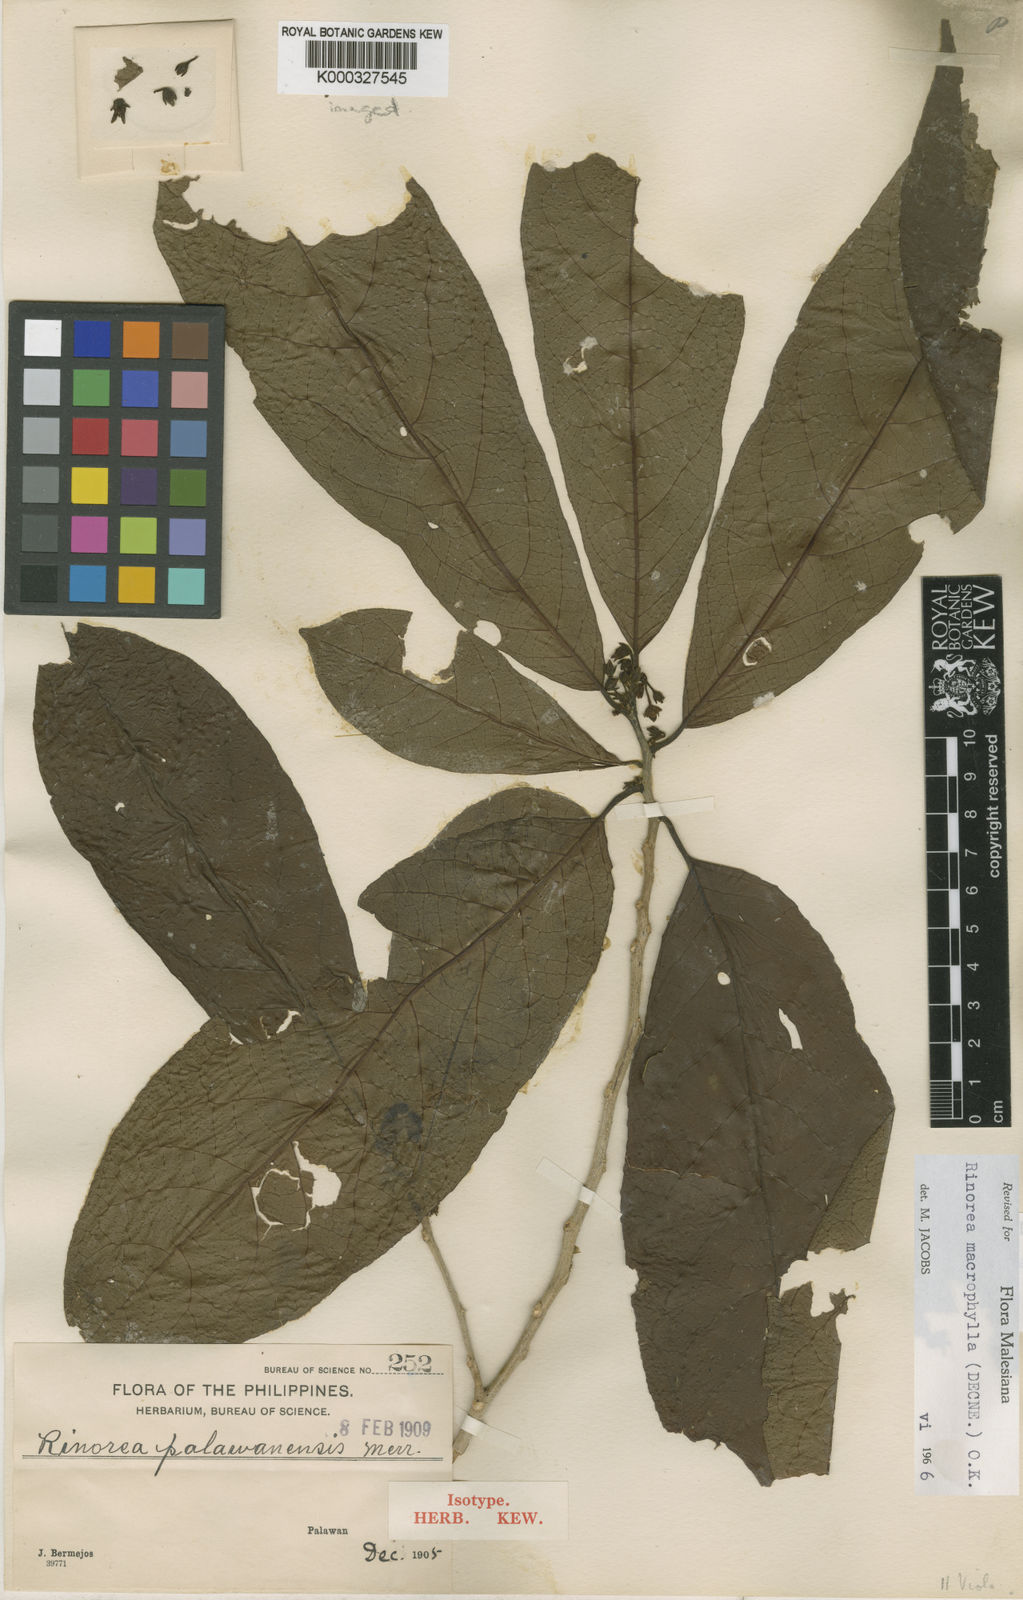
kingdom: Plantae
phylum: Tracheophyta
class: Magnoliopsida
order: Malpighiales
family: Violaceae
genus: Rinorea
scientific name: Rinorea macrophylla
